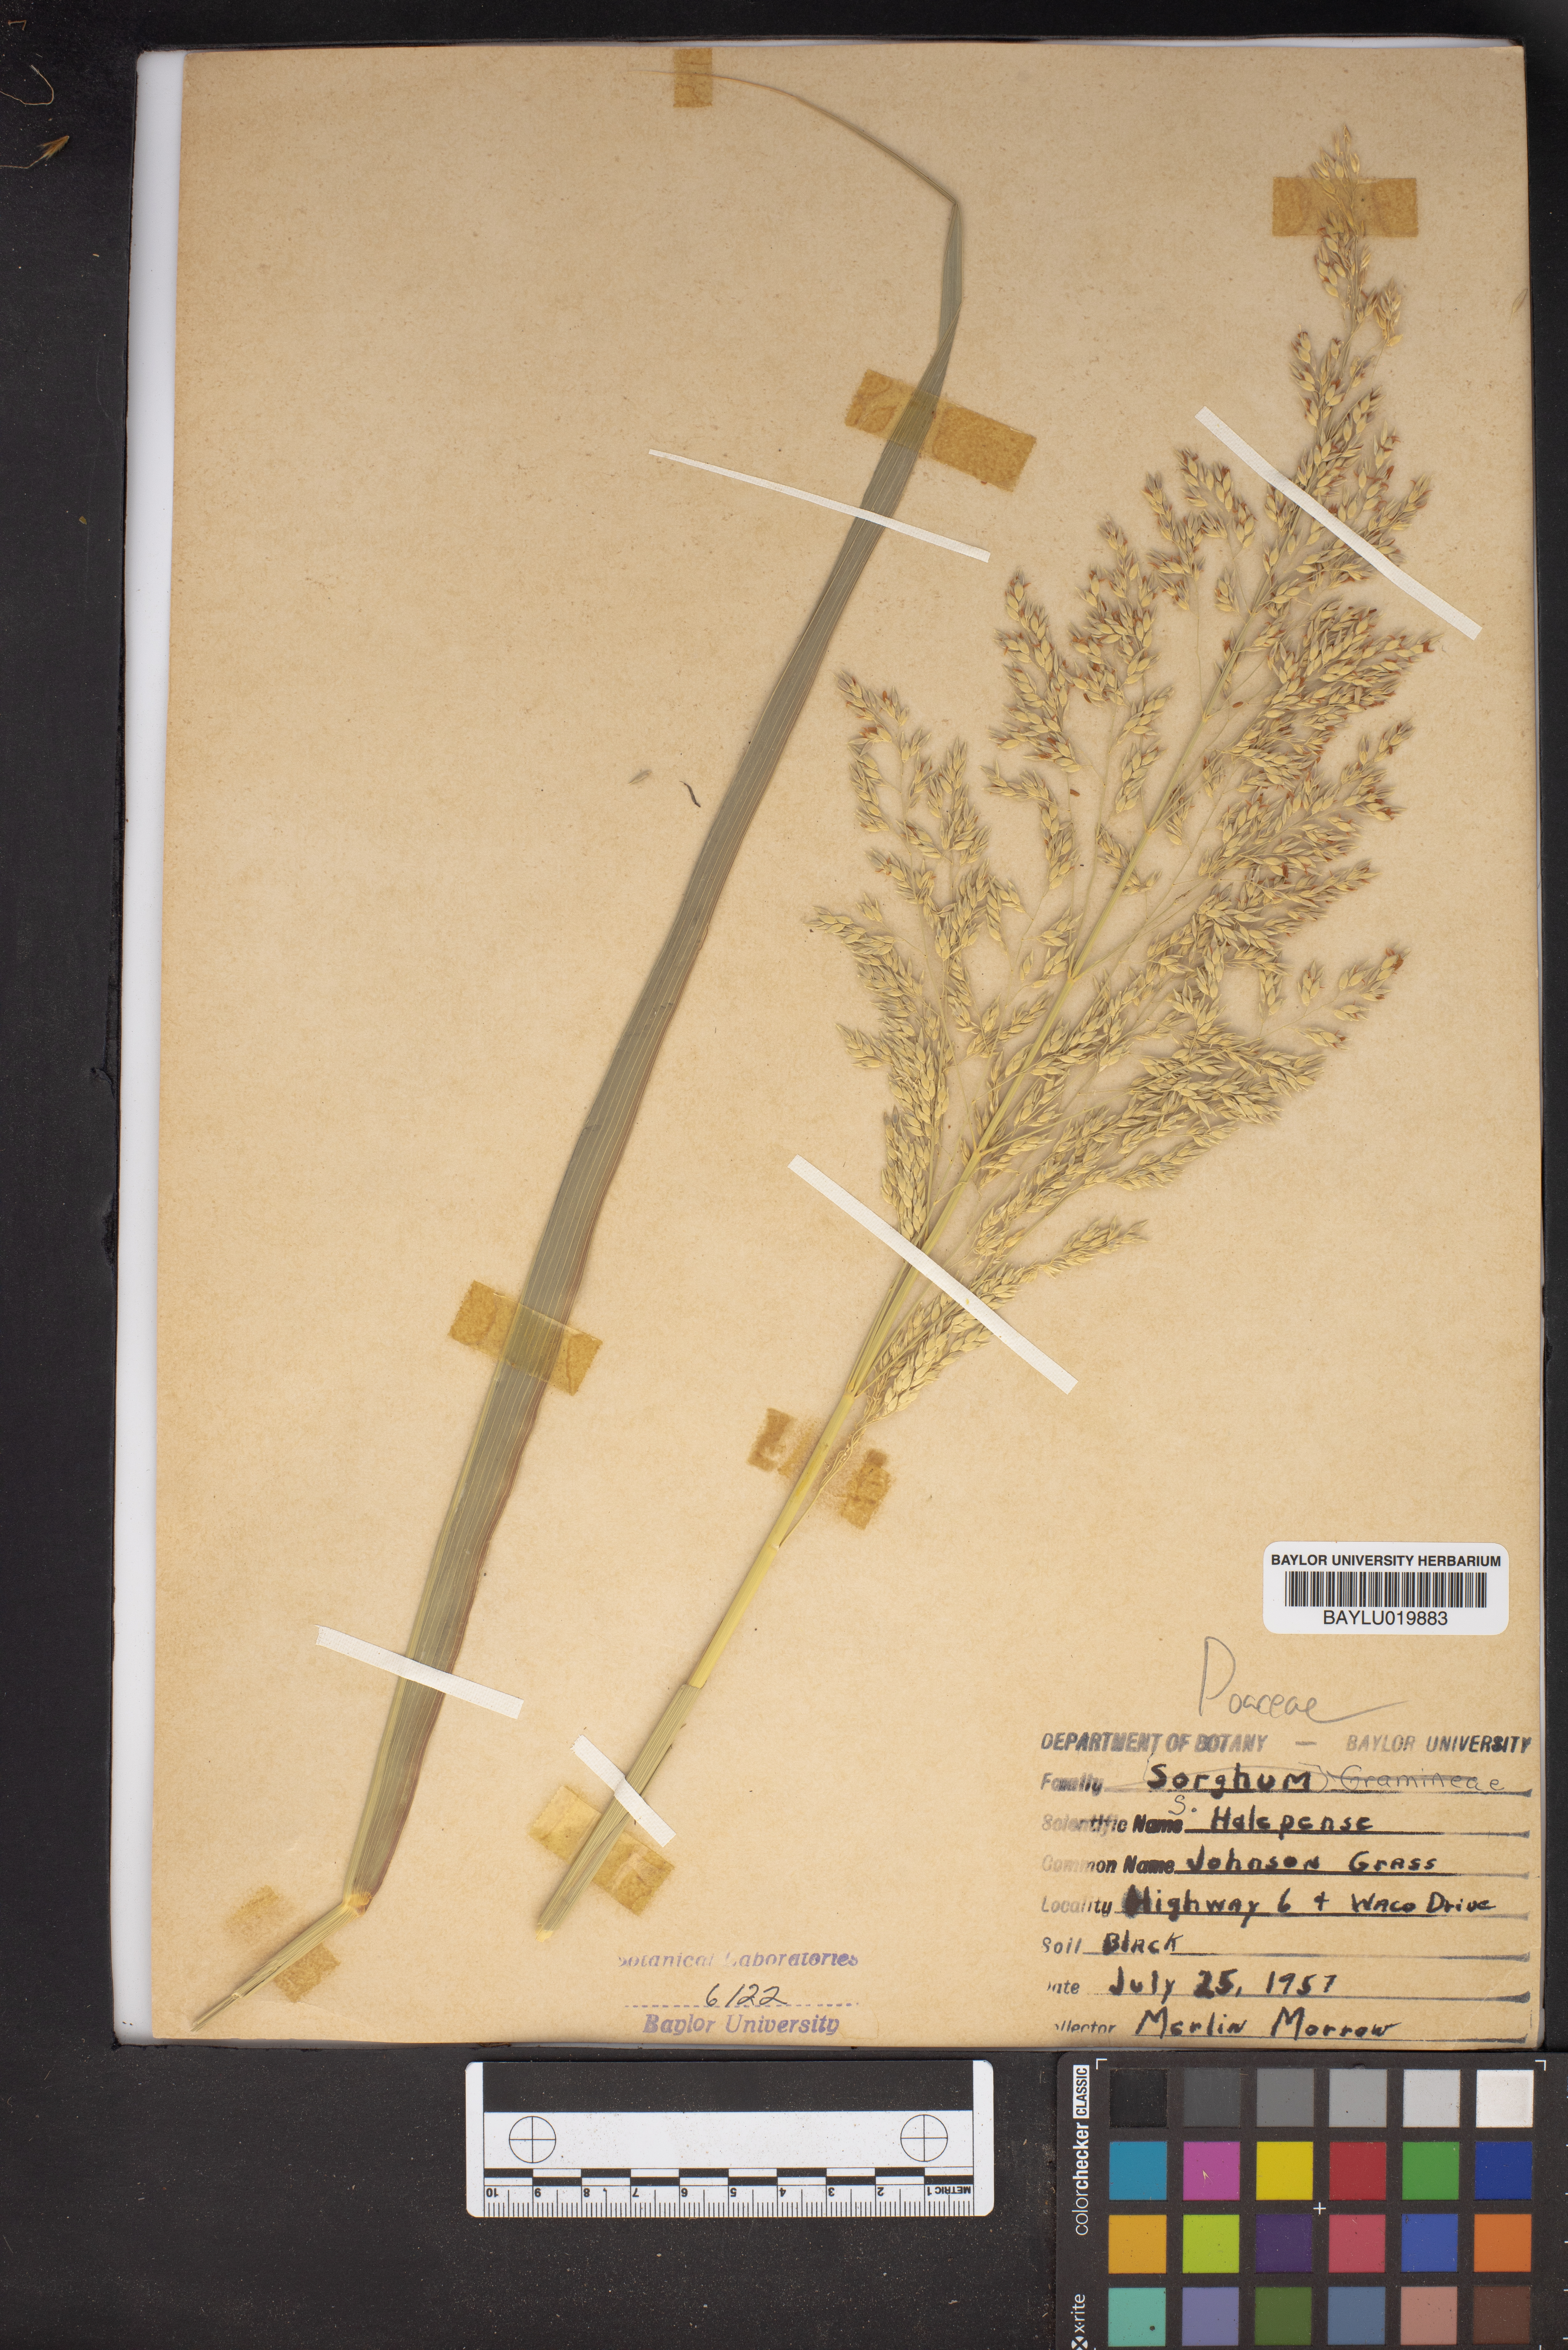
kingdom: Plantae
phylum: Tracheophyta
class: Liliopsida
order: Poales
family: Poaceae
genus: Sorghum
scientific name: Sorghum halepense
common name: Johnson-grass
